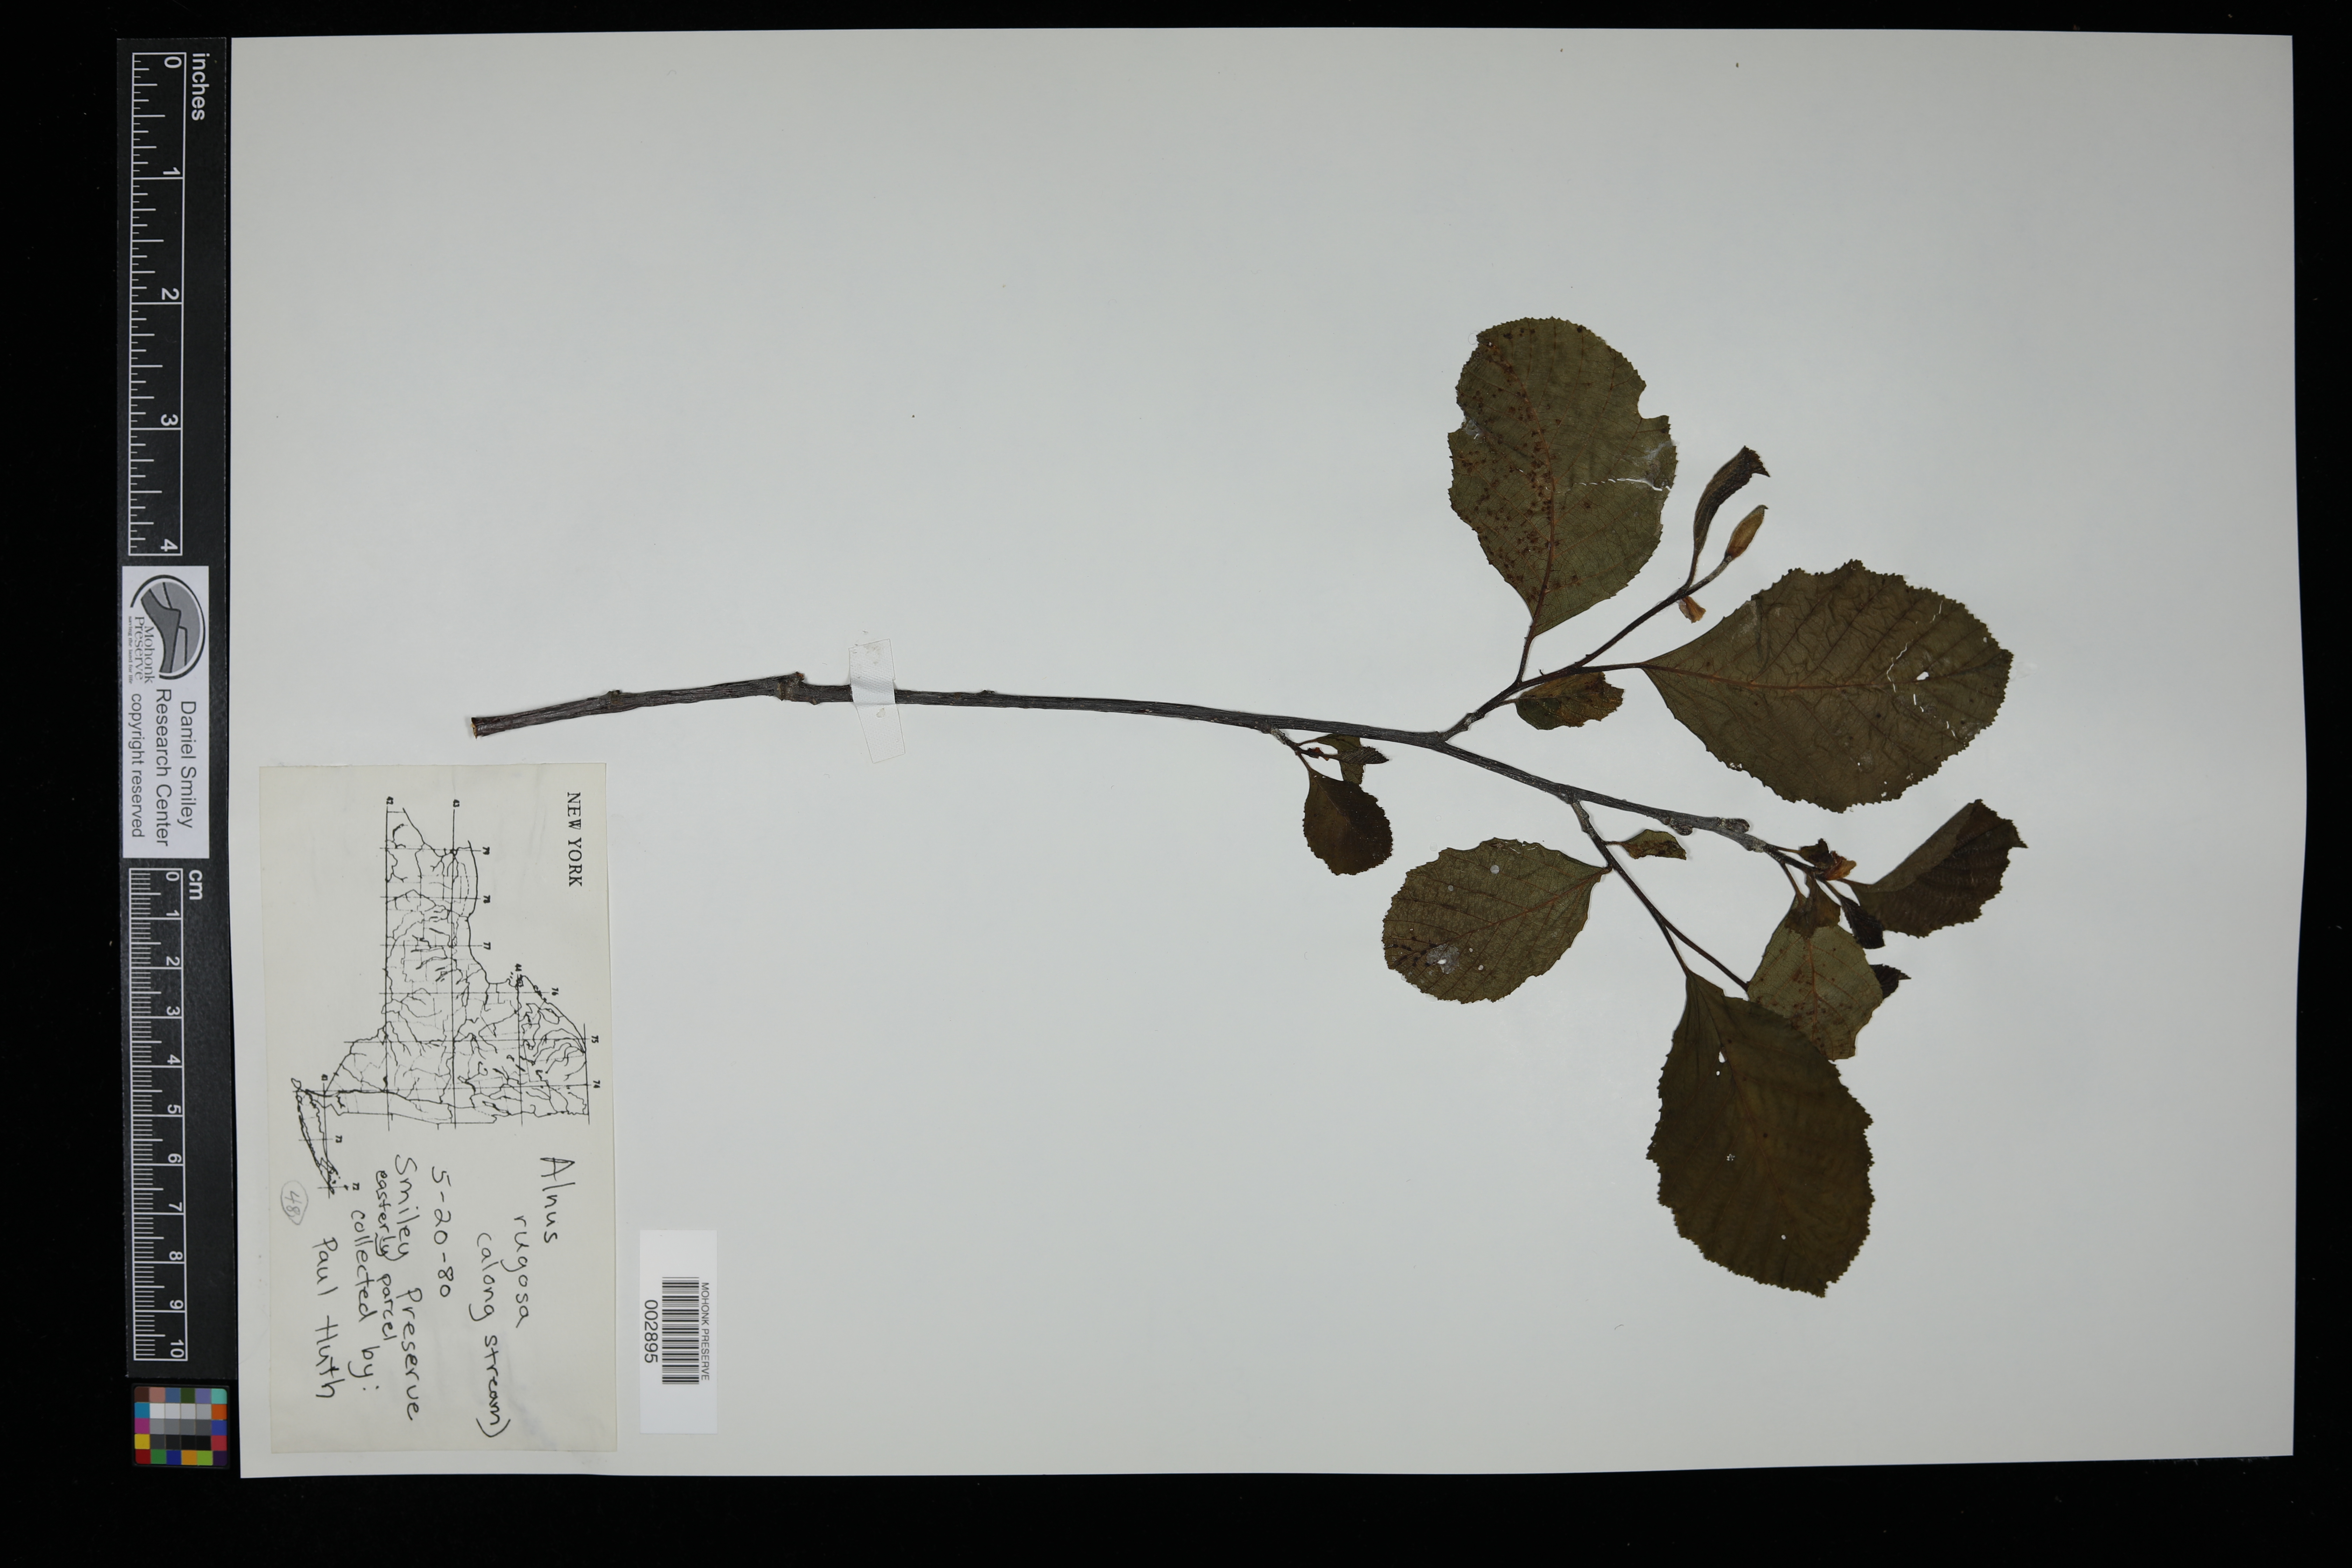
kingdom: Plantae
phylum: Tracheophyta
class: Magnoliopsida
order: Fagales
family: Betulaceae
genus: Alnus
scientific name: Alnus incana
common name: Grey alder
